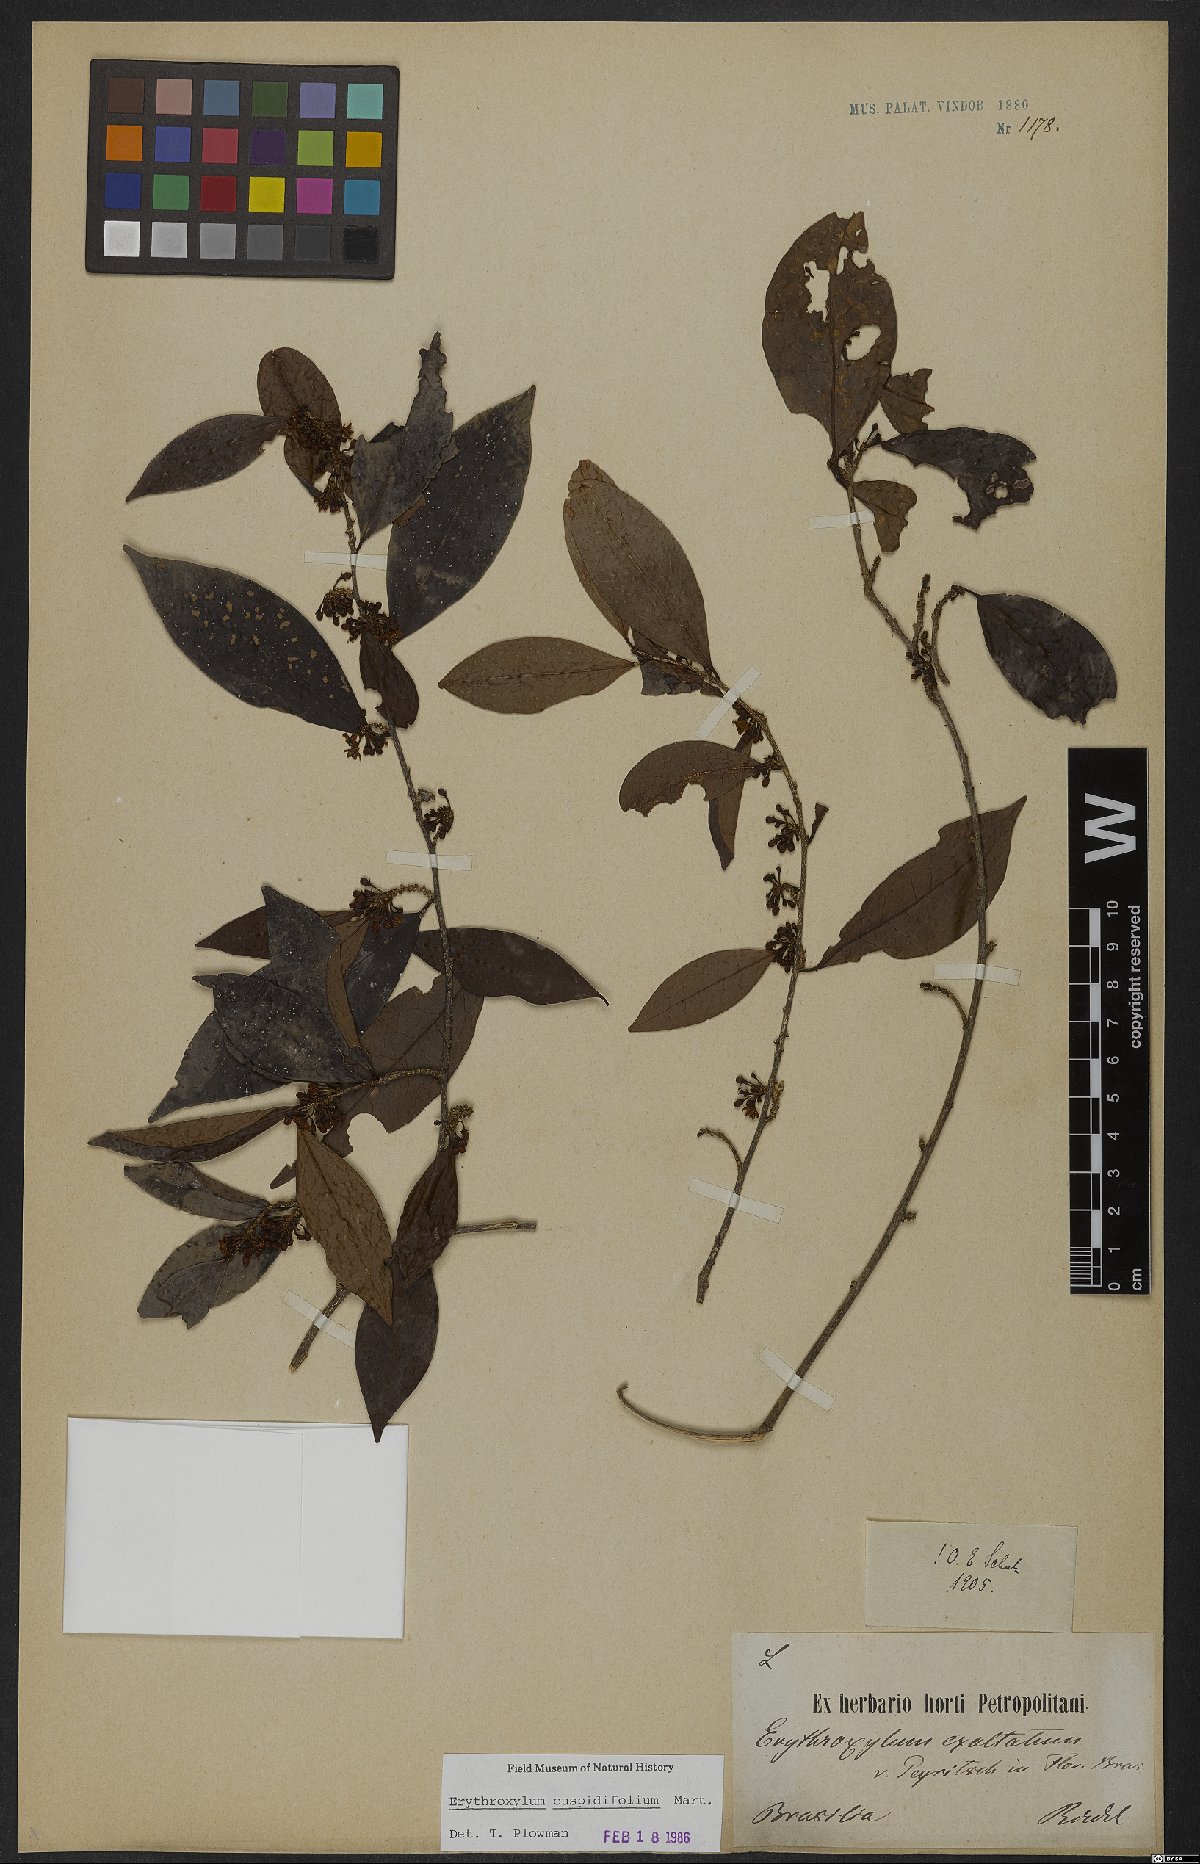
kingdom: Plantae
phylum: Tracheophyta
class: Magnoliopsida
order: Malpighiales
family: Erythroxylaceae
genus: Erythroxylum
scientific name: Erythroxylum cuspidifolium
